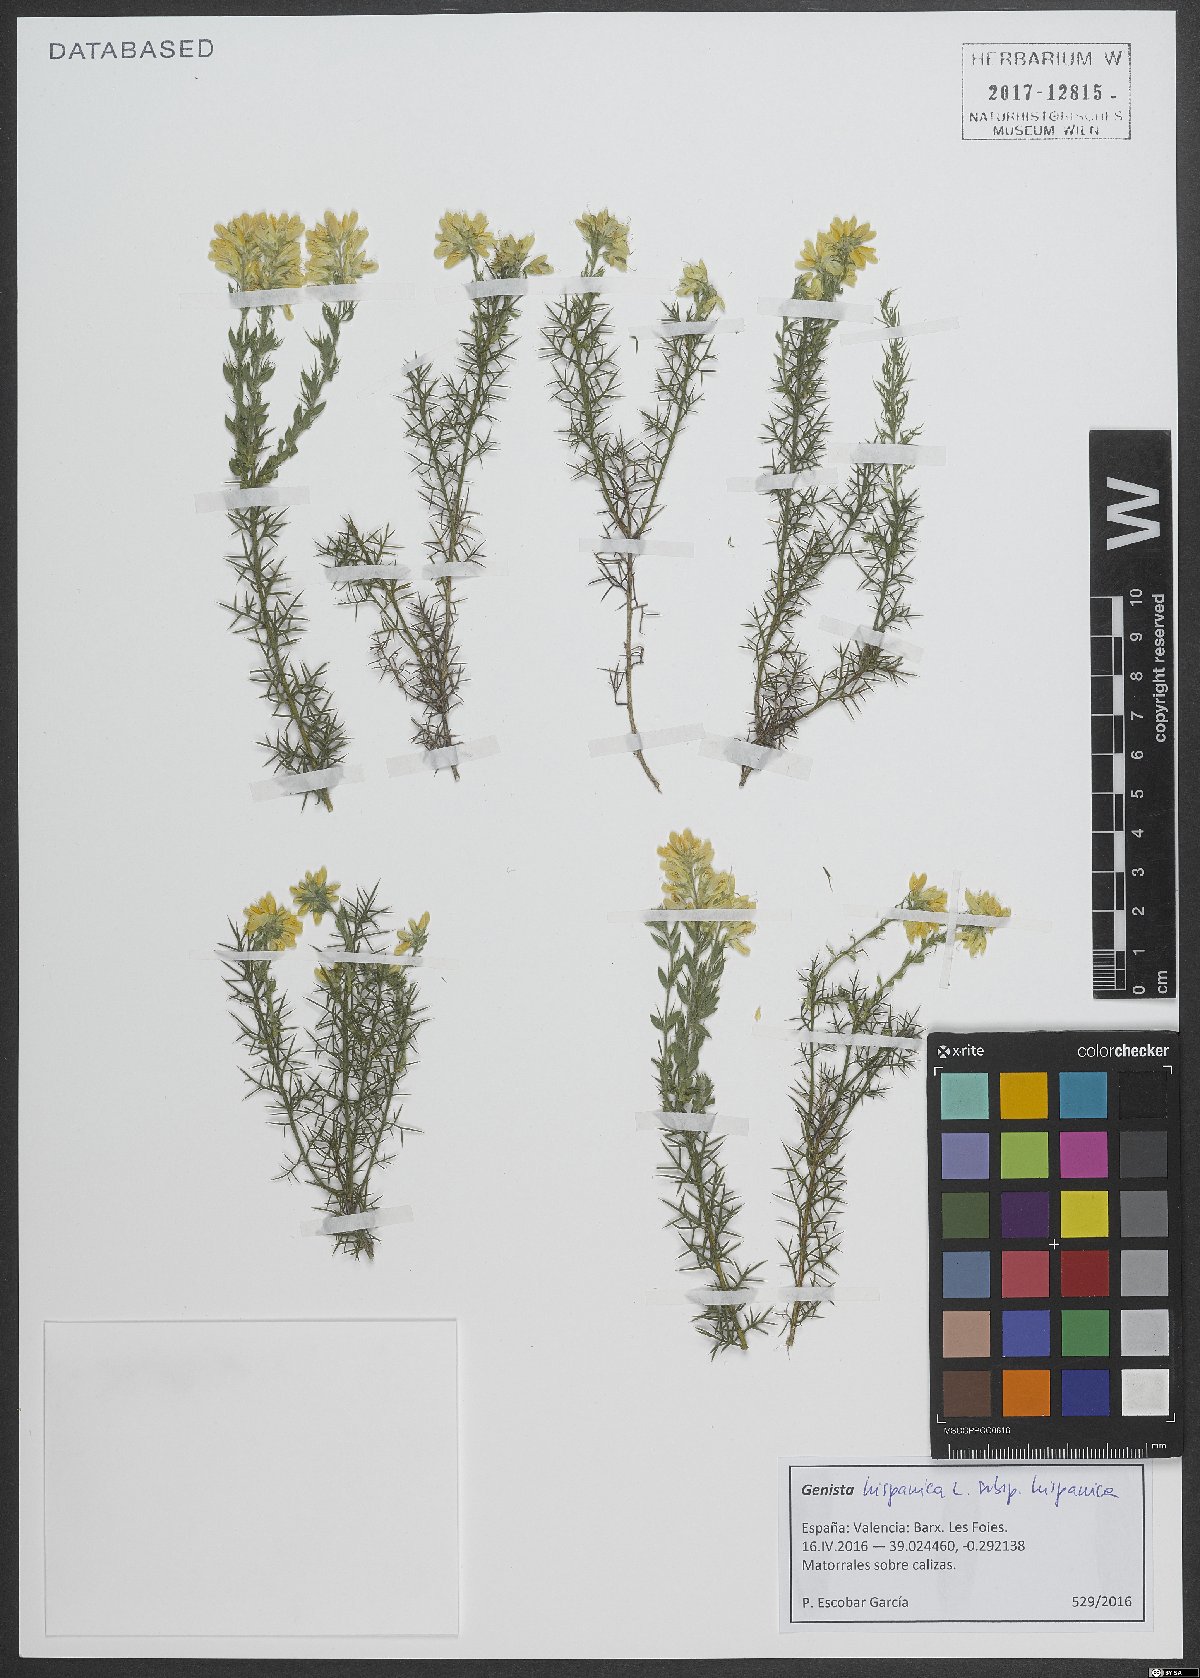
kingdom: Plantae
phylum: Tracheophyta
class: Magnoliopsida
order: Fabales
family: Fabaceae
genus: Genista
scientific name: Genista hispanica
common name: Spanish gorse
